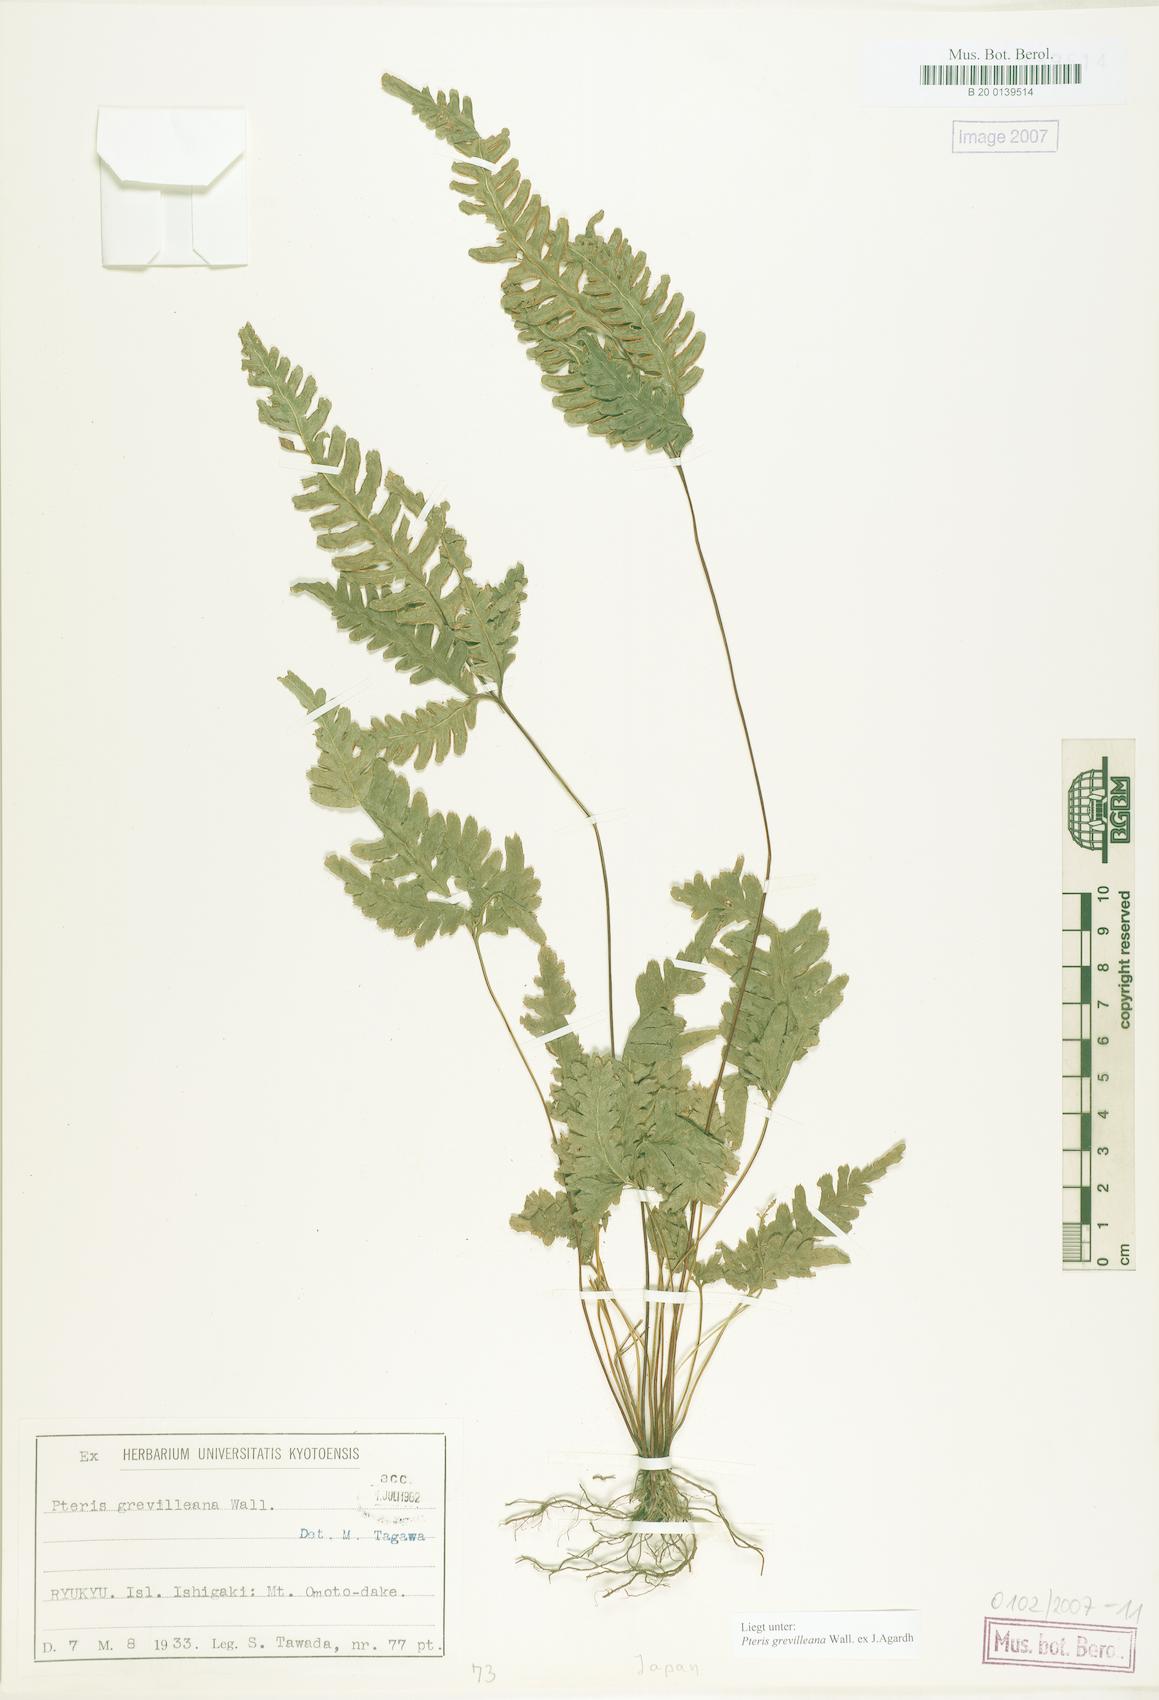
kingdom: Plantae
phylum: Tracheophyta
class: Polypodiopsida
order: Polypodiales
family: Pteridaceae
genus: Pteris
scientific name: Pteris grevilleana
